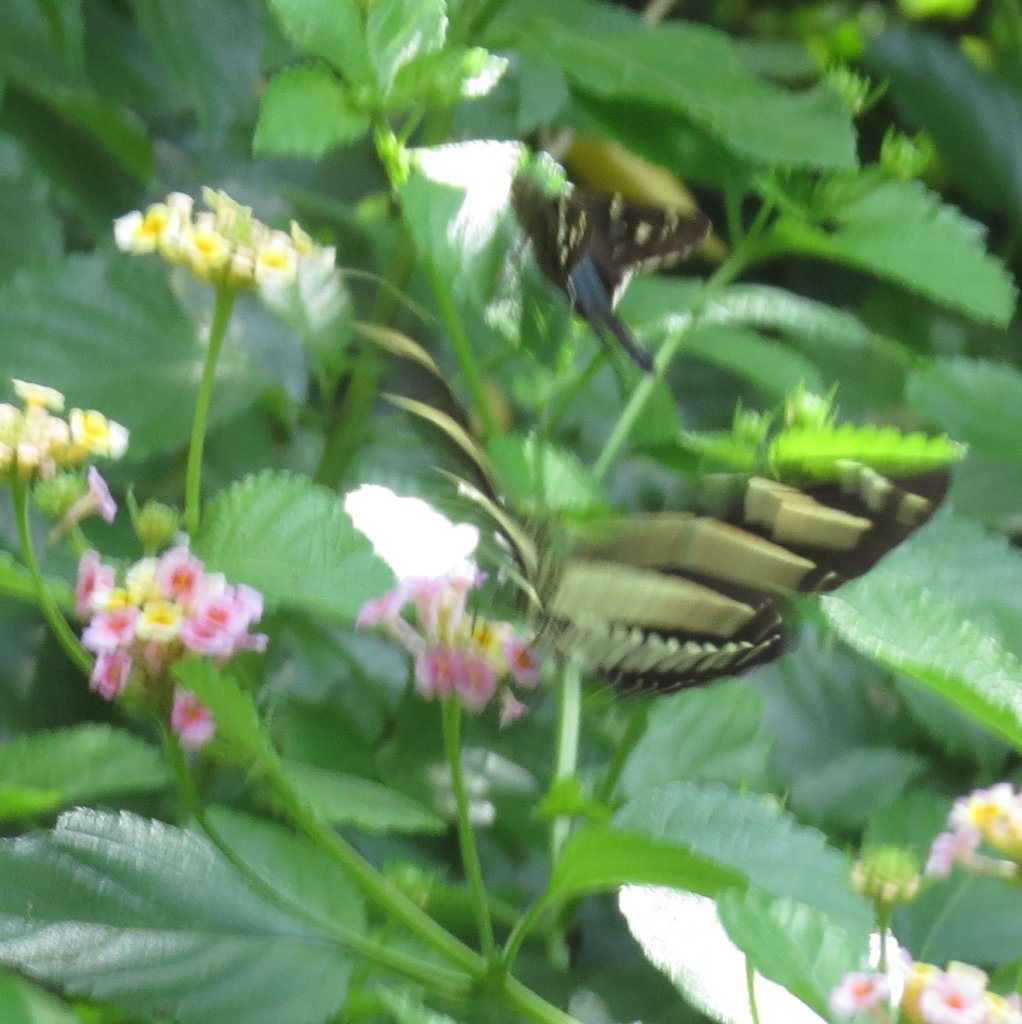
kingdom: Animalia
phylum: Arthropoda
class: Insecta
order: Lepidoptera
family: Nymphalidae
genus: Heliconius
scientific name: Heliconius charithonia
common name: Zebra Longwing
